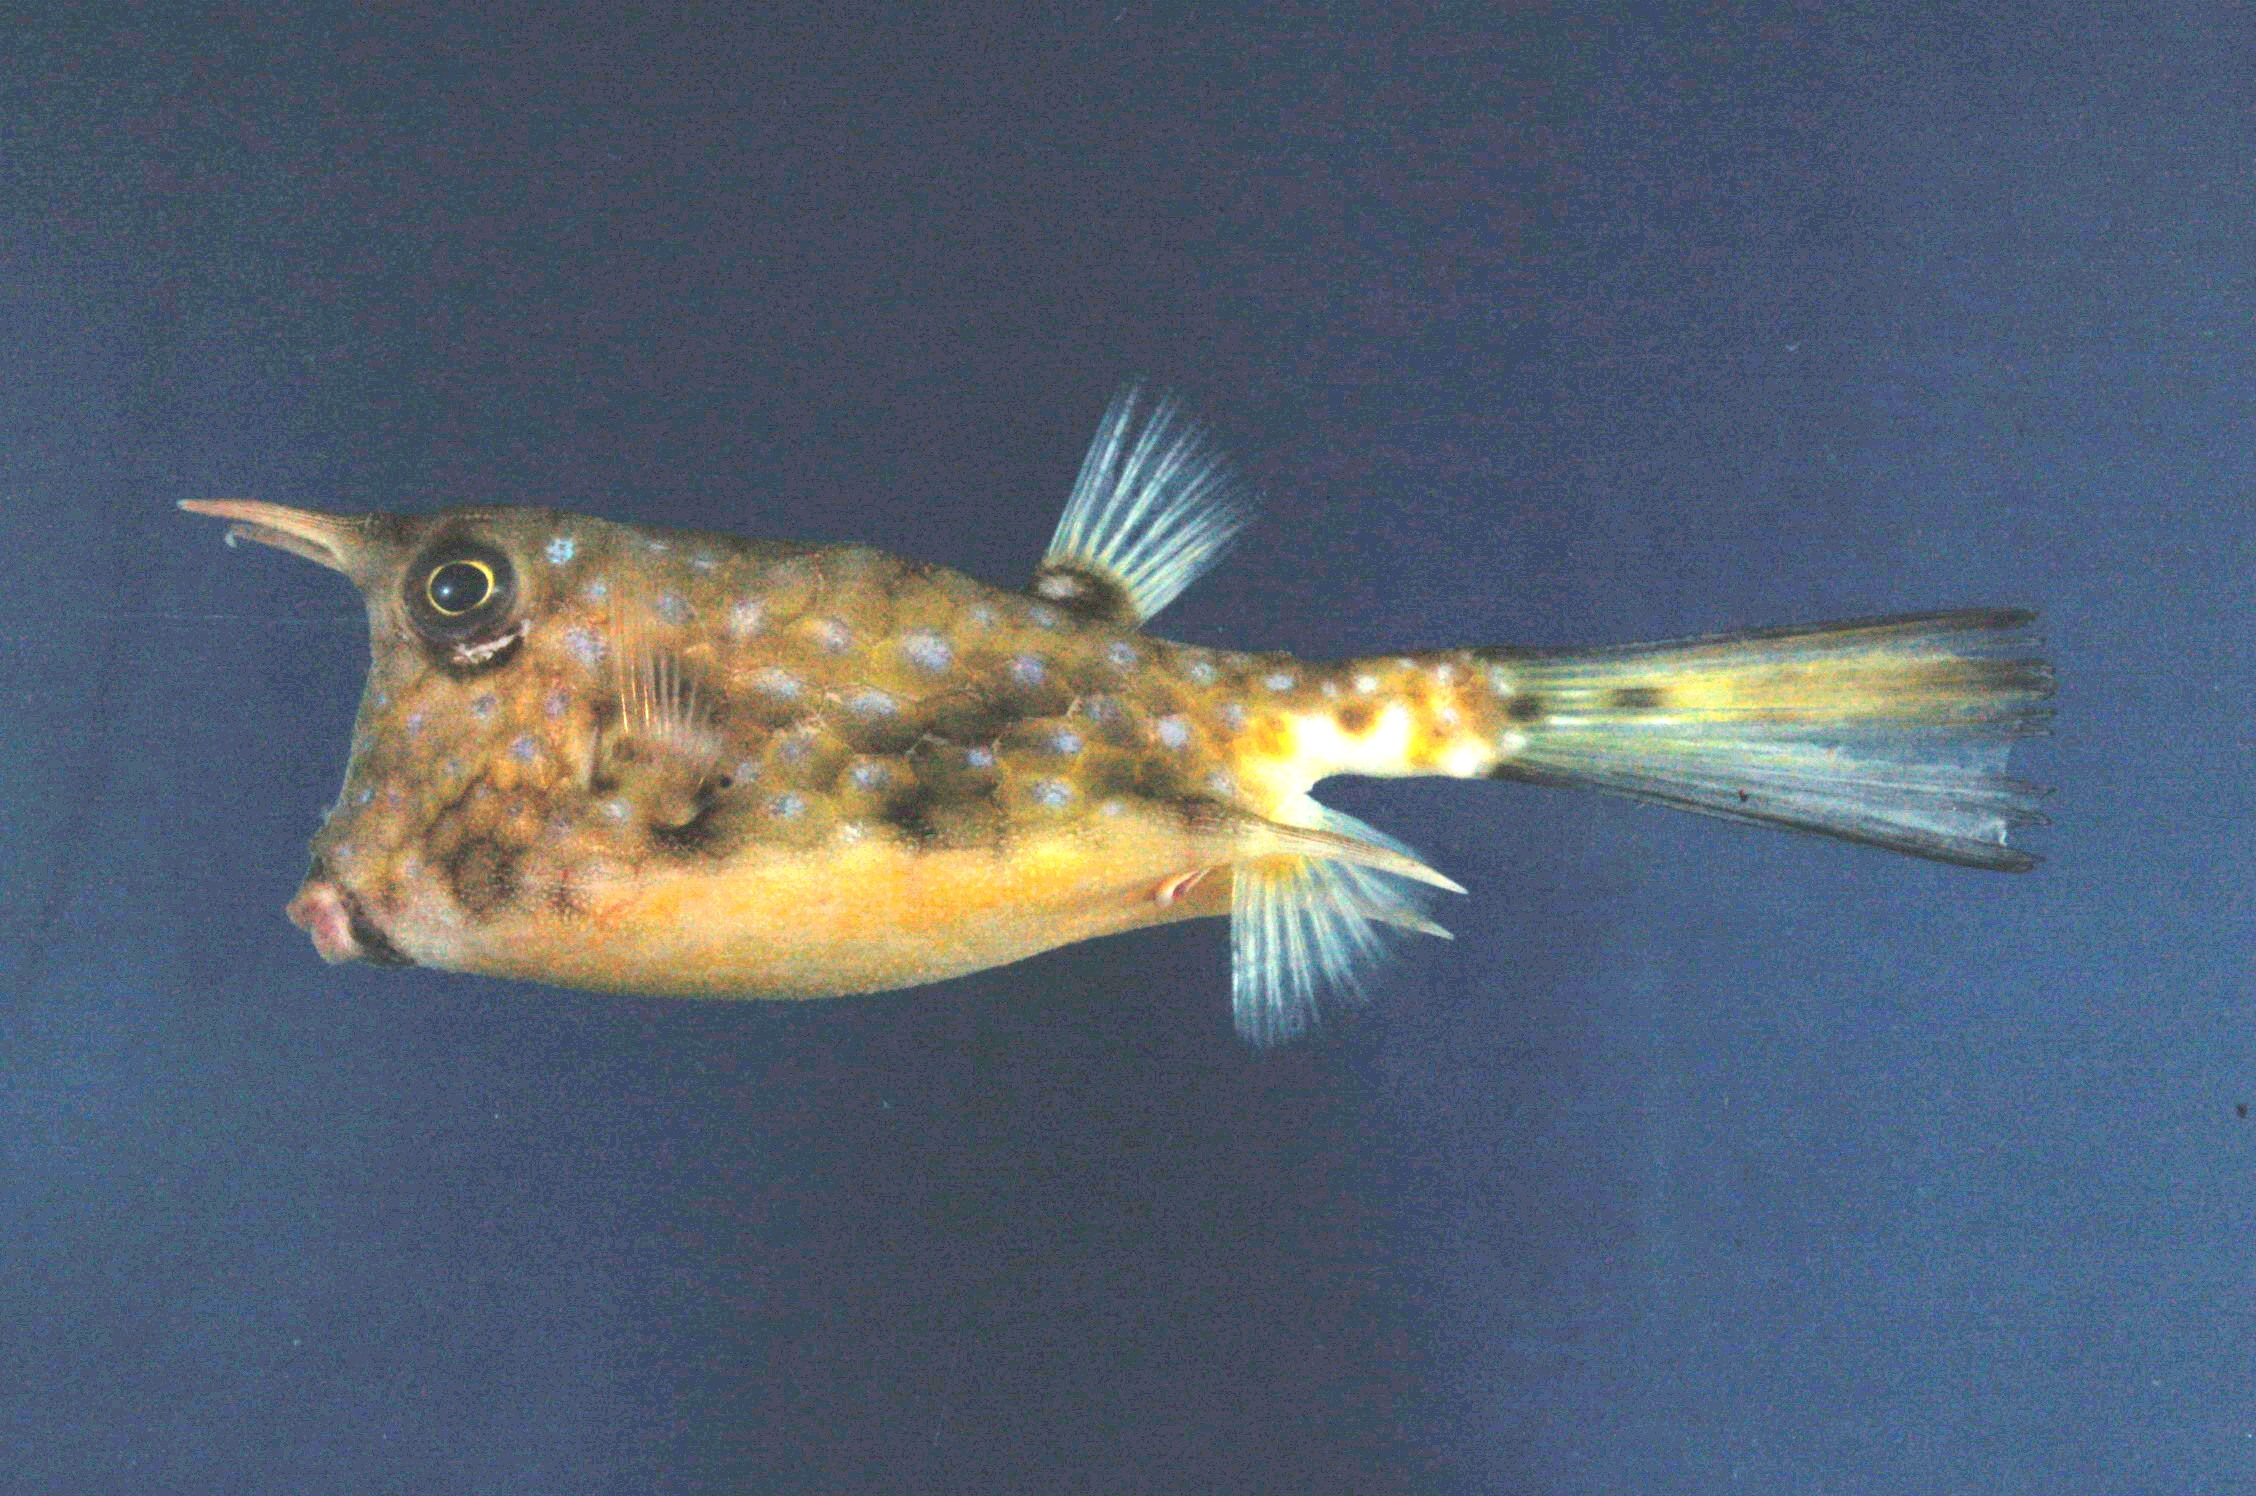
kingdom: Animalia
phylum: Chordata
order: Tetraodontiformes
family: Ostraciidae
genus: Lactoria
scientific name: Lactoria cornuta
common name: Longhorn cowfish
